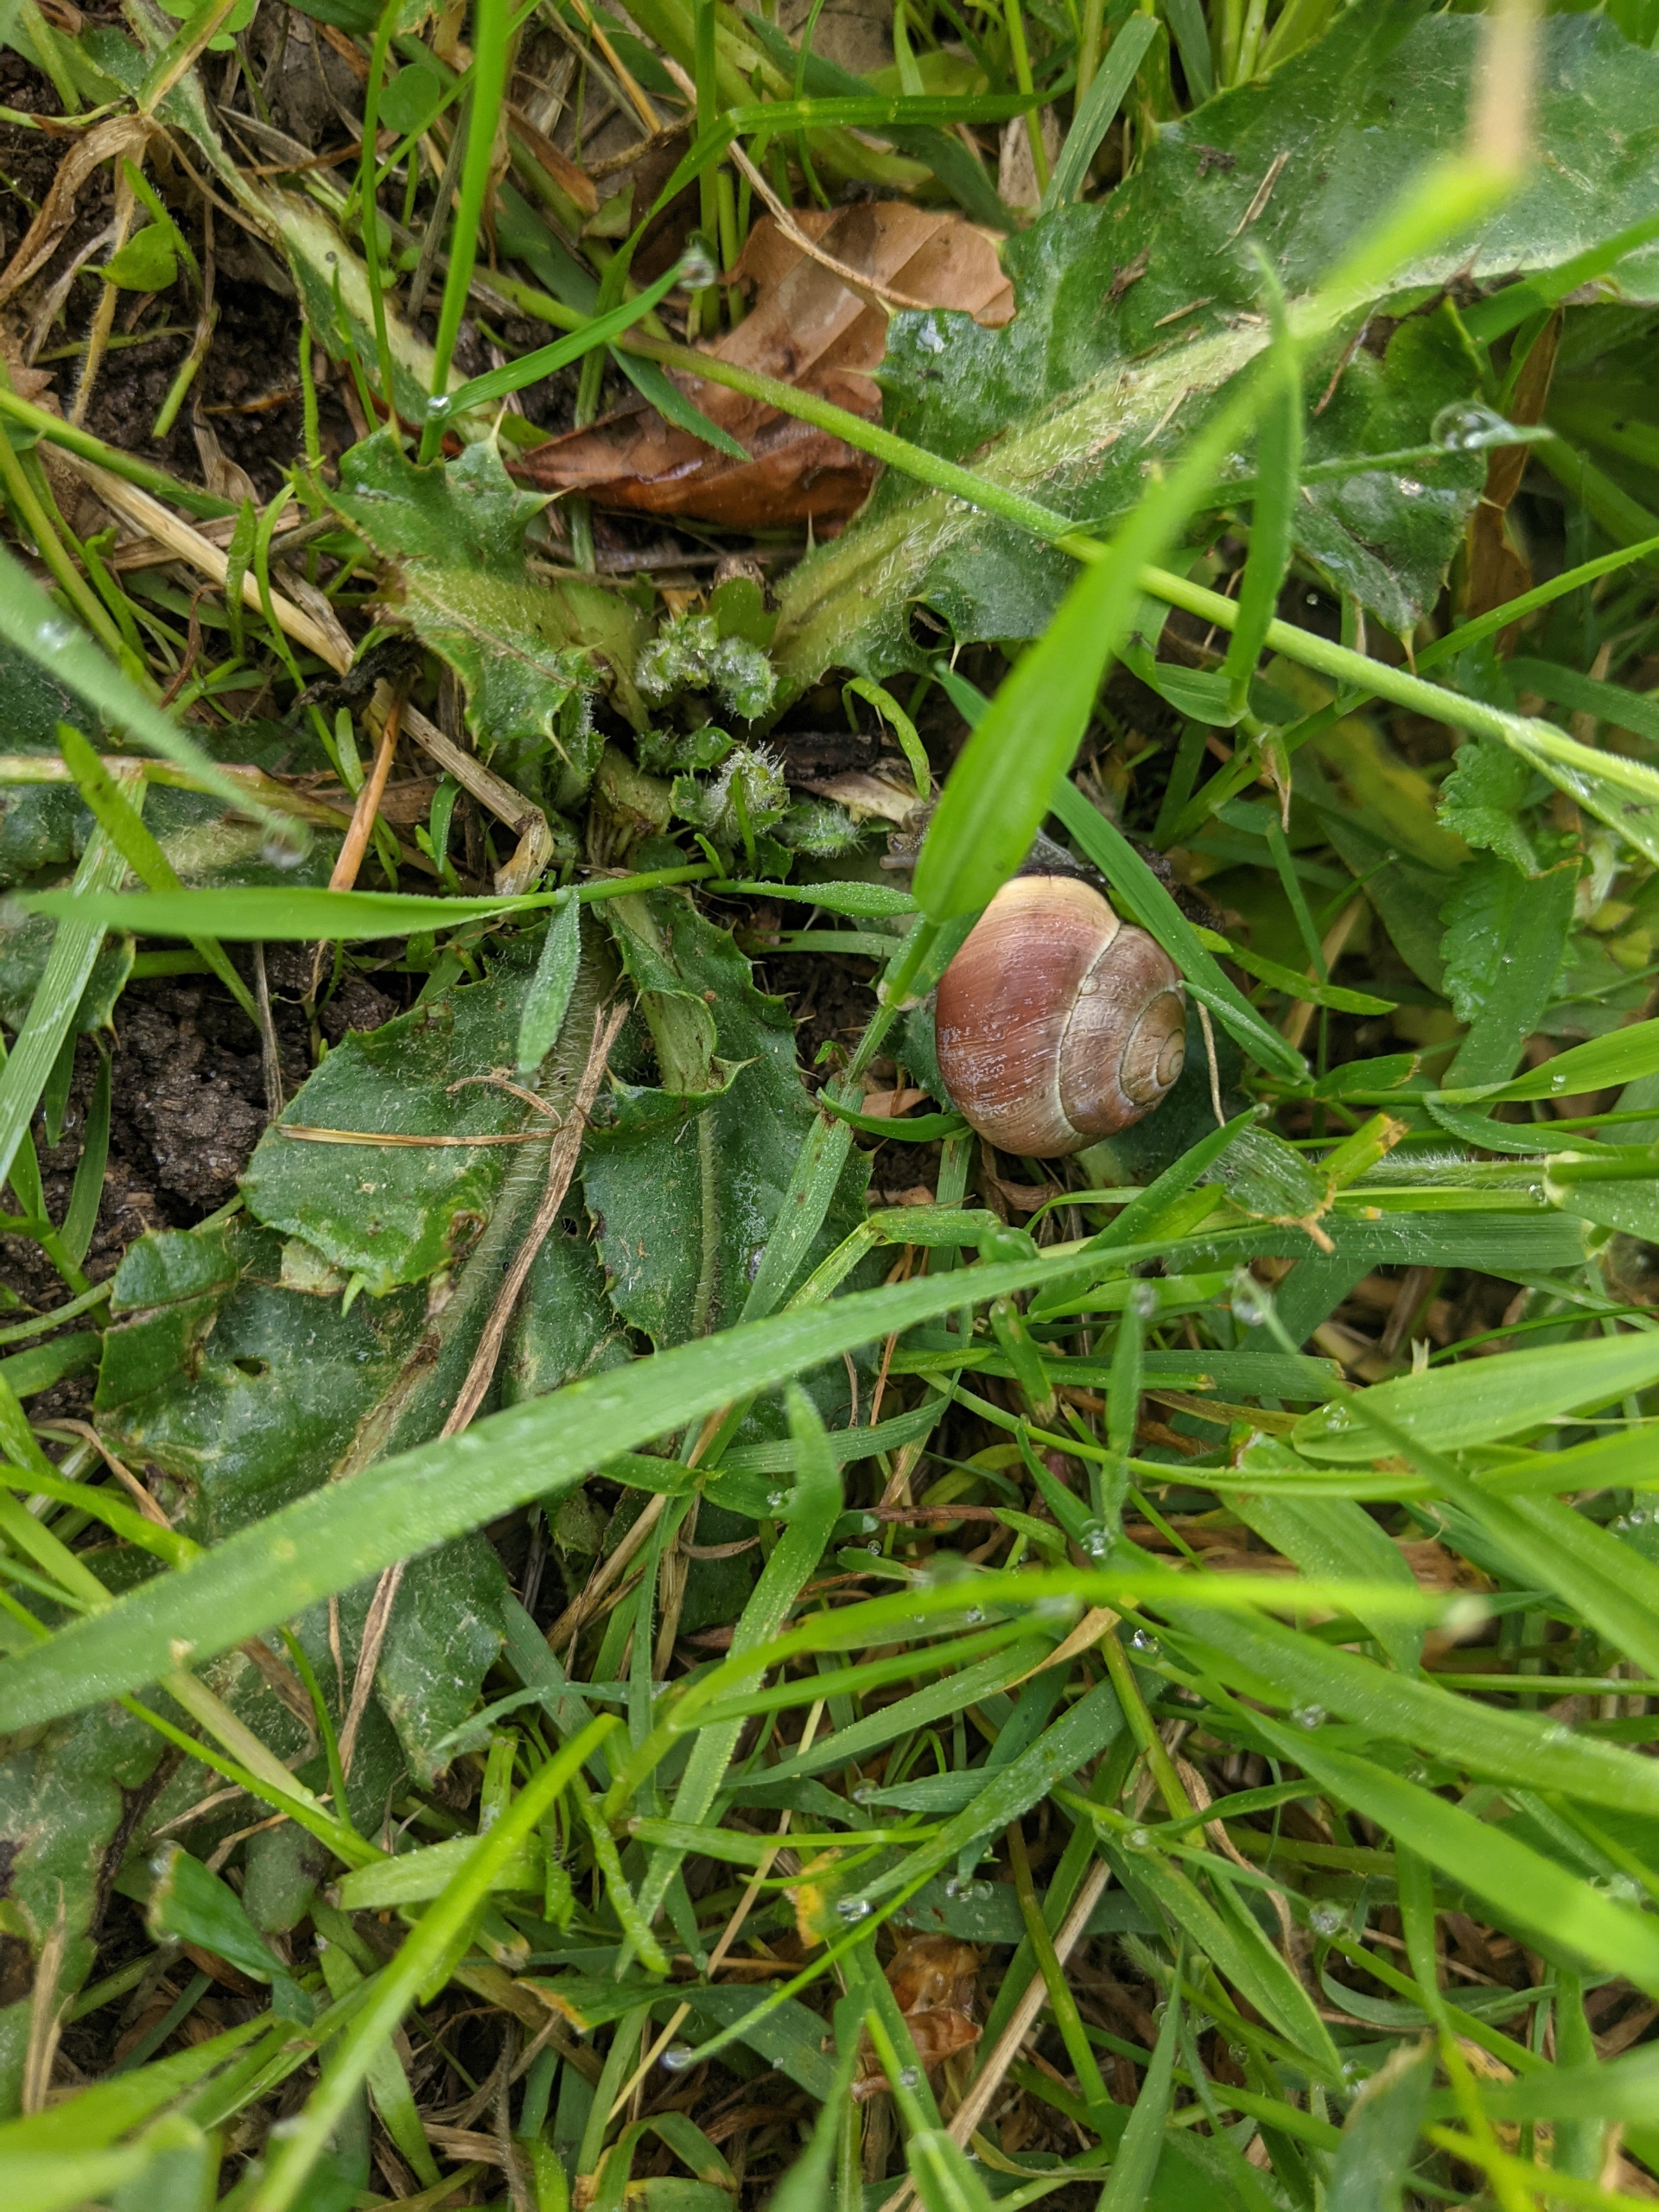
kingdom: Animalia
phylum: Mollusca
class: Gastropoda
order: Stylommatophora
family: Helicidae
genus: Cepaea
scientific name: Cepaea nemoralis
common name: Lundsnegl
